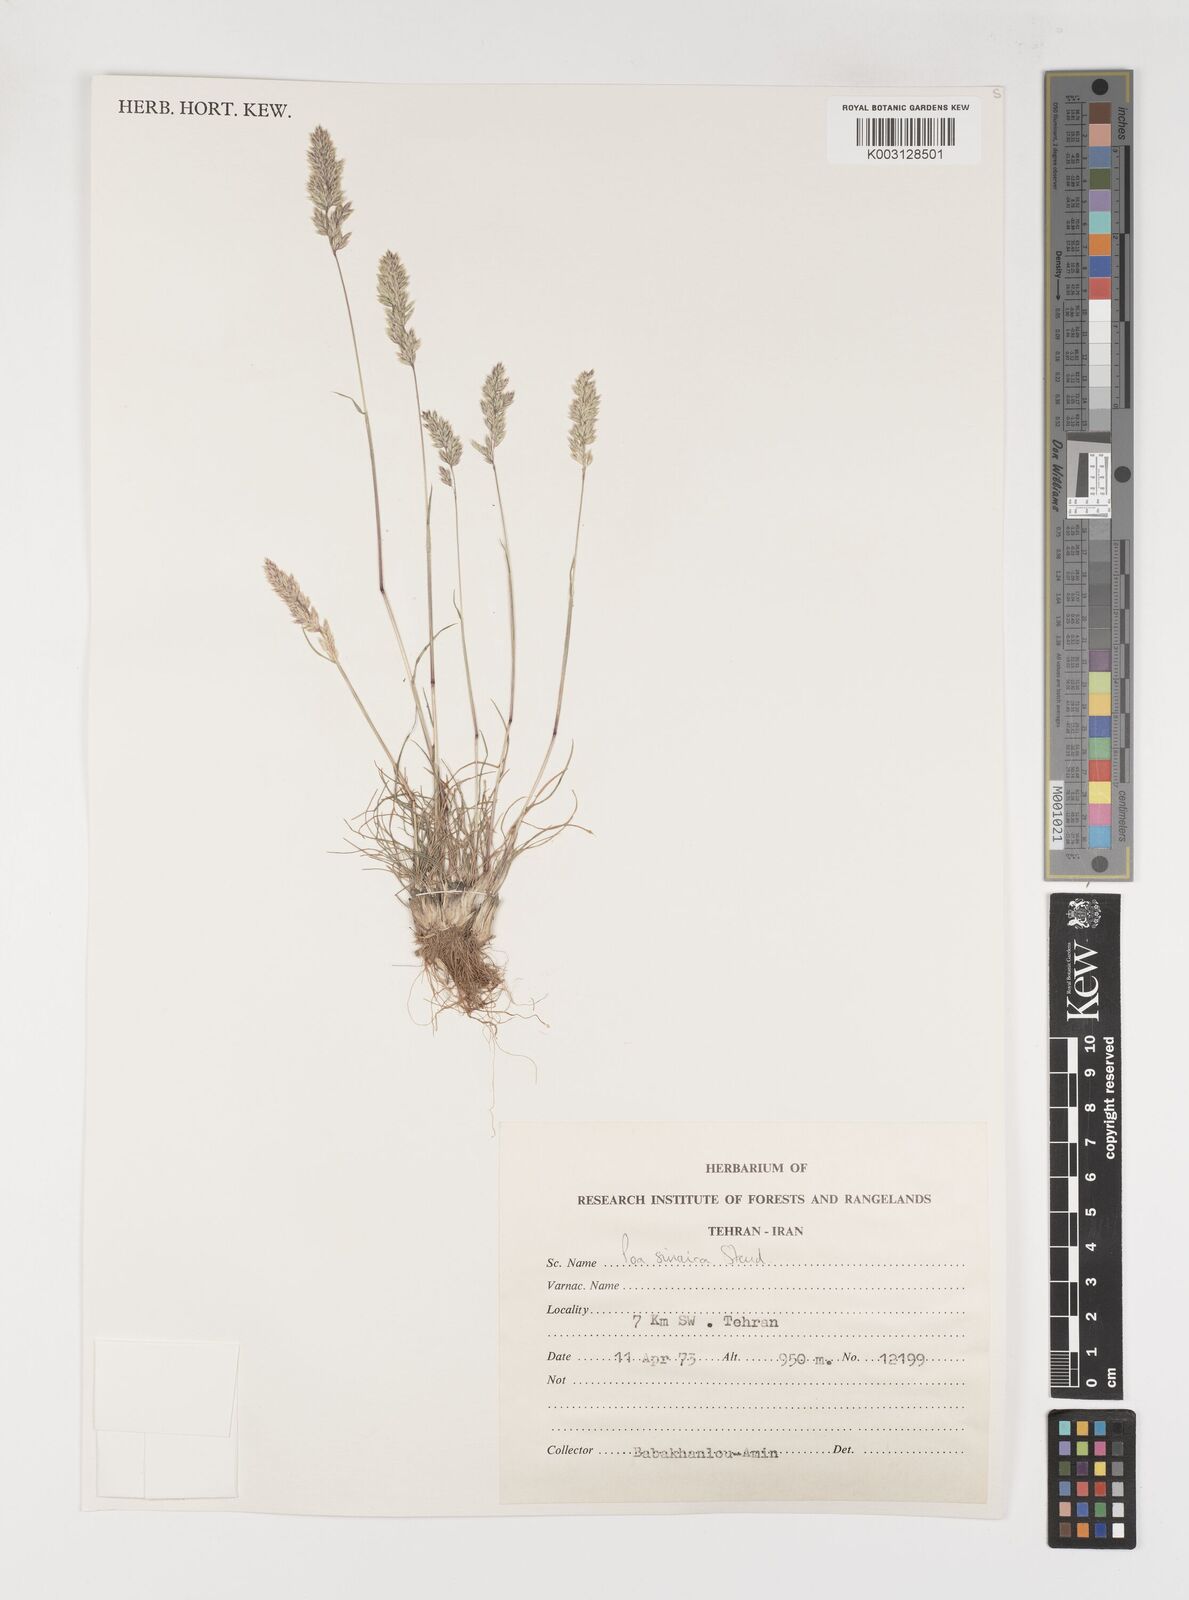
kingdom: Plantae
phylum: Tracheophyta
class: Liliopsida
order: Poales
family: Poaceae
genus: Poa
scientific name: Poa sinaica
